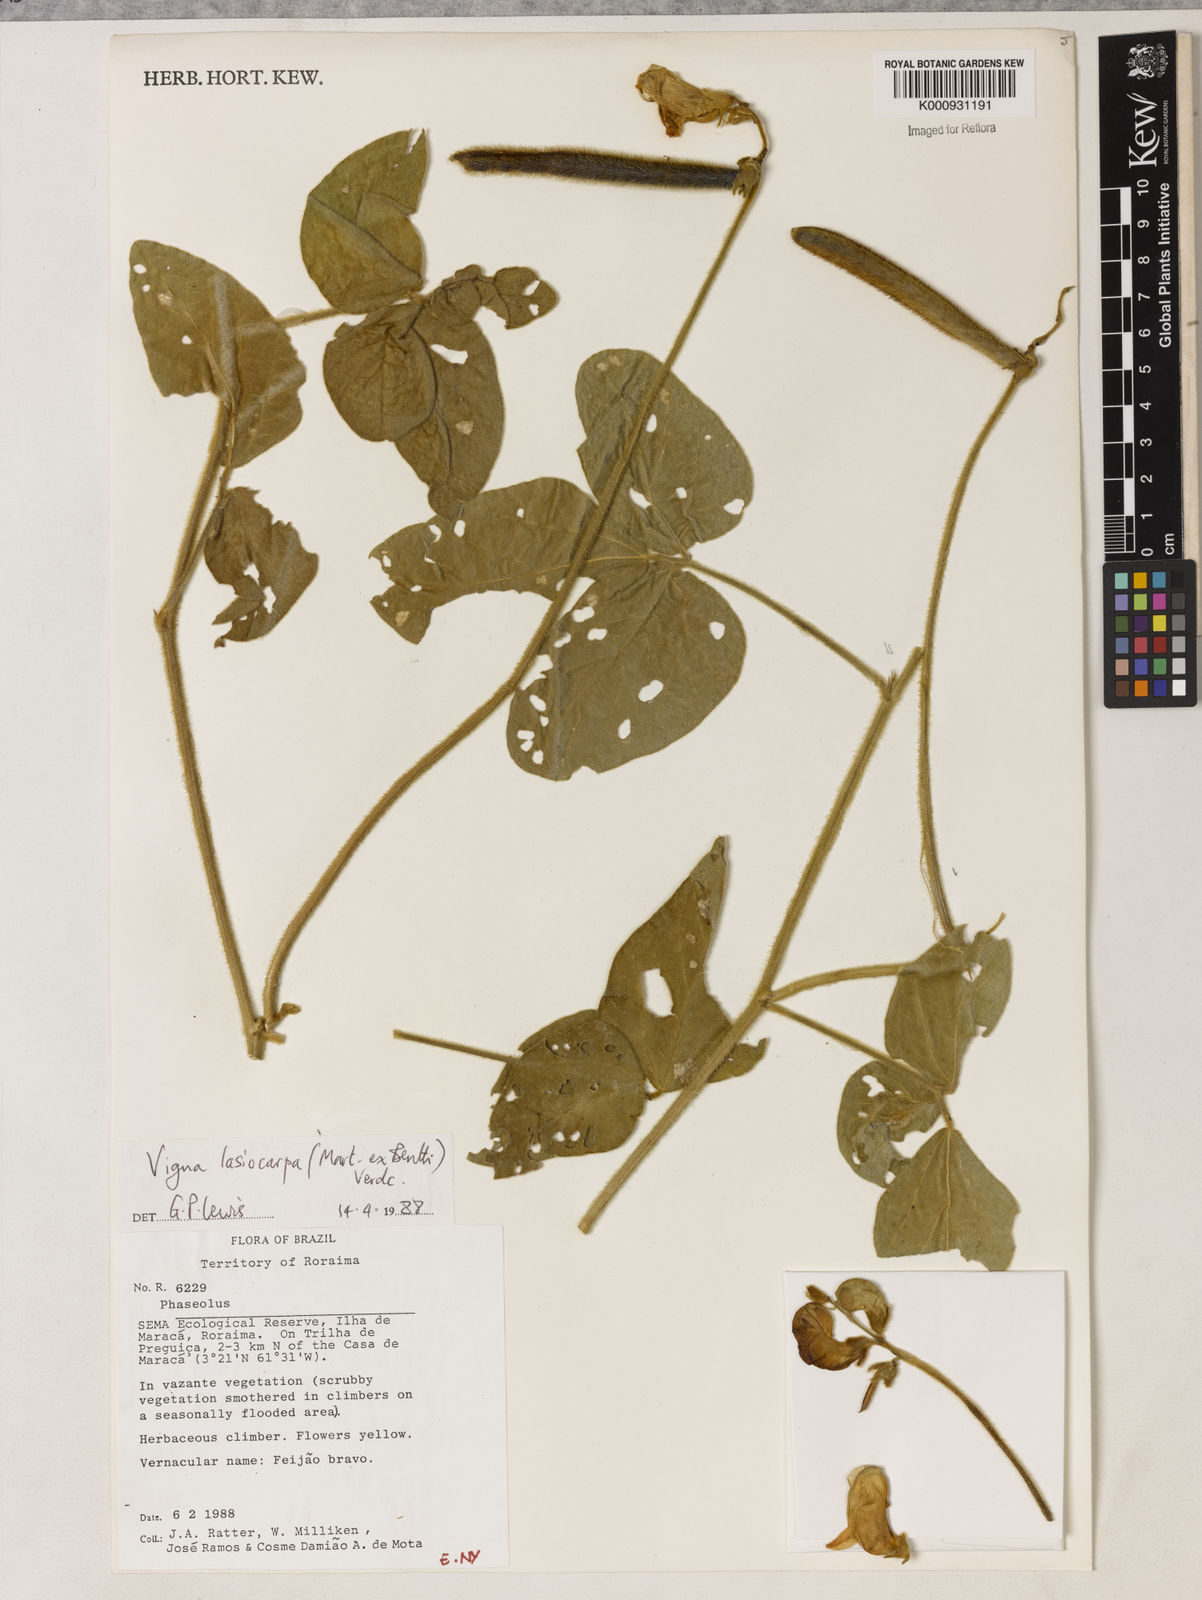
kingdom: Plantae
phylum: Tracheophyta
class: Magnoliopsida
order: Fabales
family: Fabaceae
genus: Vigna
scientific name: Vigna lasiocarpa
